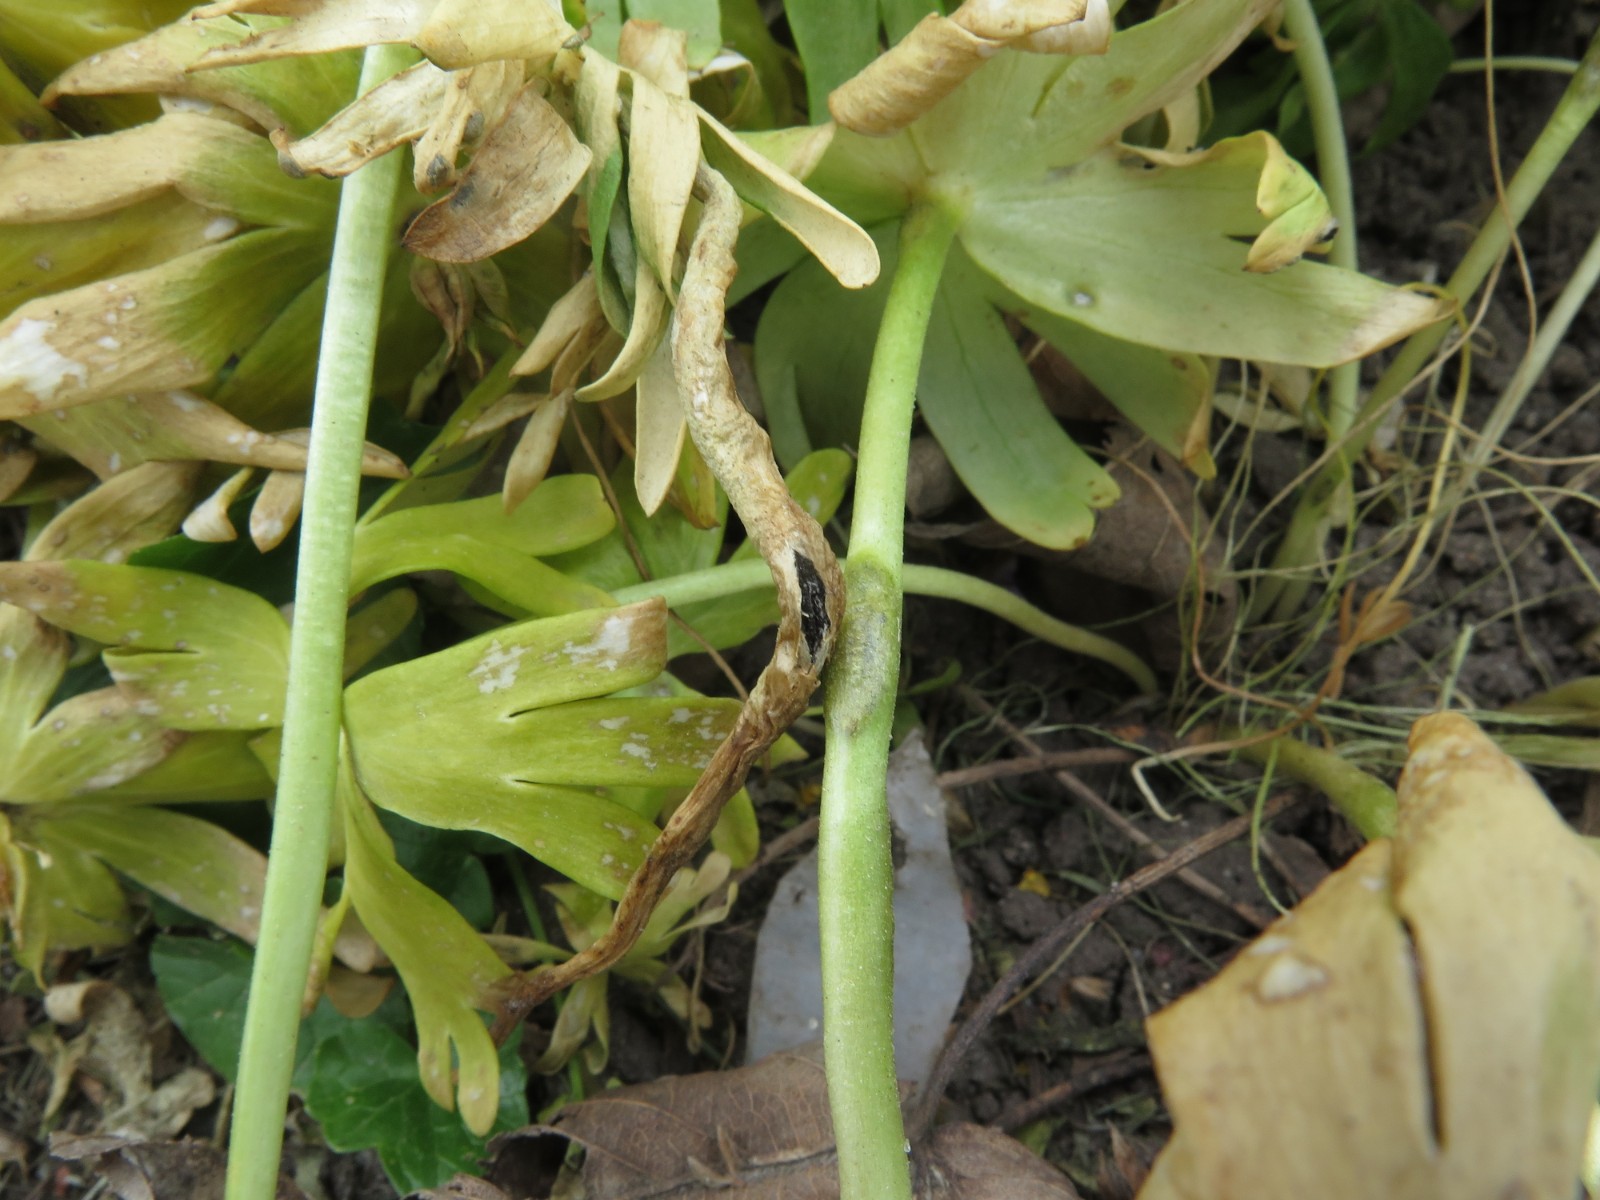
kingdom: Fungi
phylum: Basidiomycota
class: Ustilaginomycetes
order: Urocystidales
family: Urocystidaceae
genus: Urocystis
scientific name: Urocystis eranthidis
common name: erantis-brand
